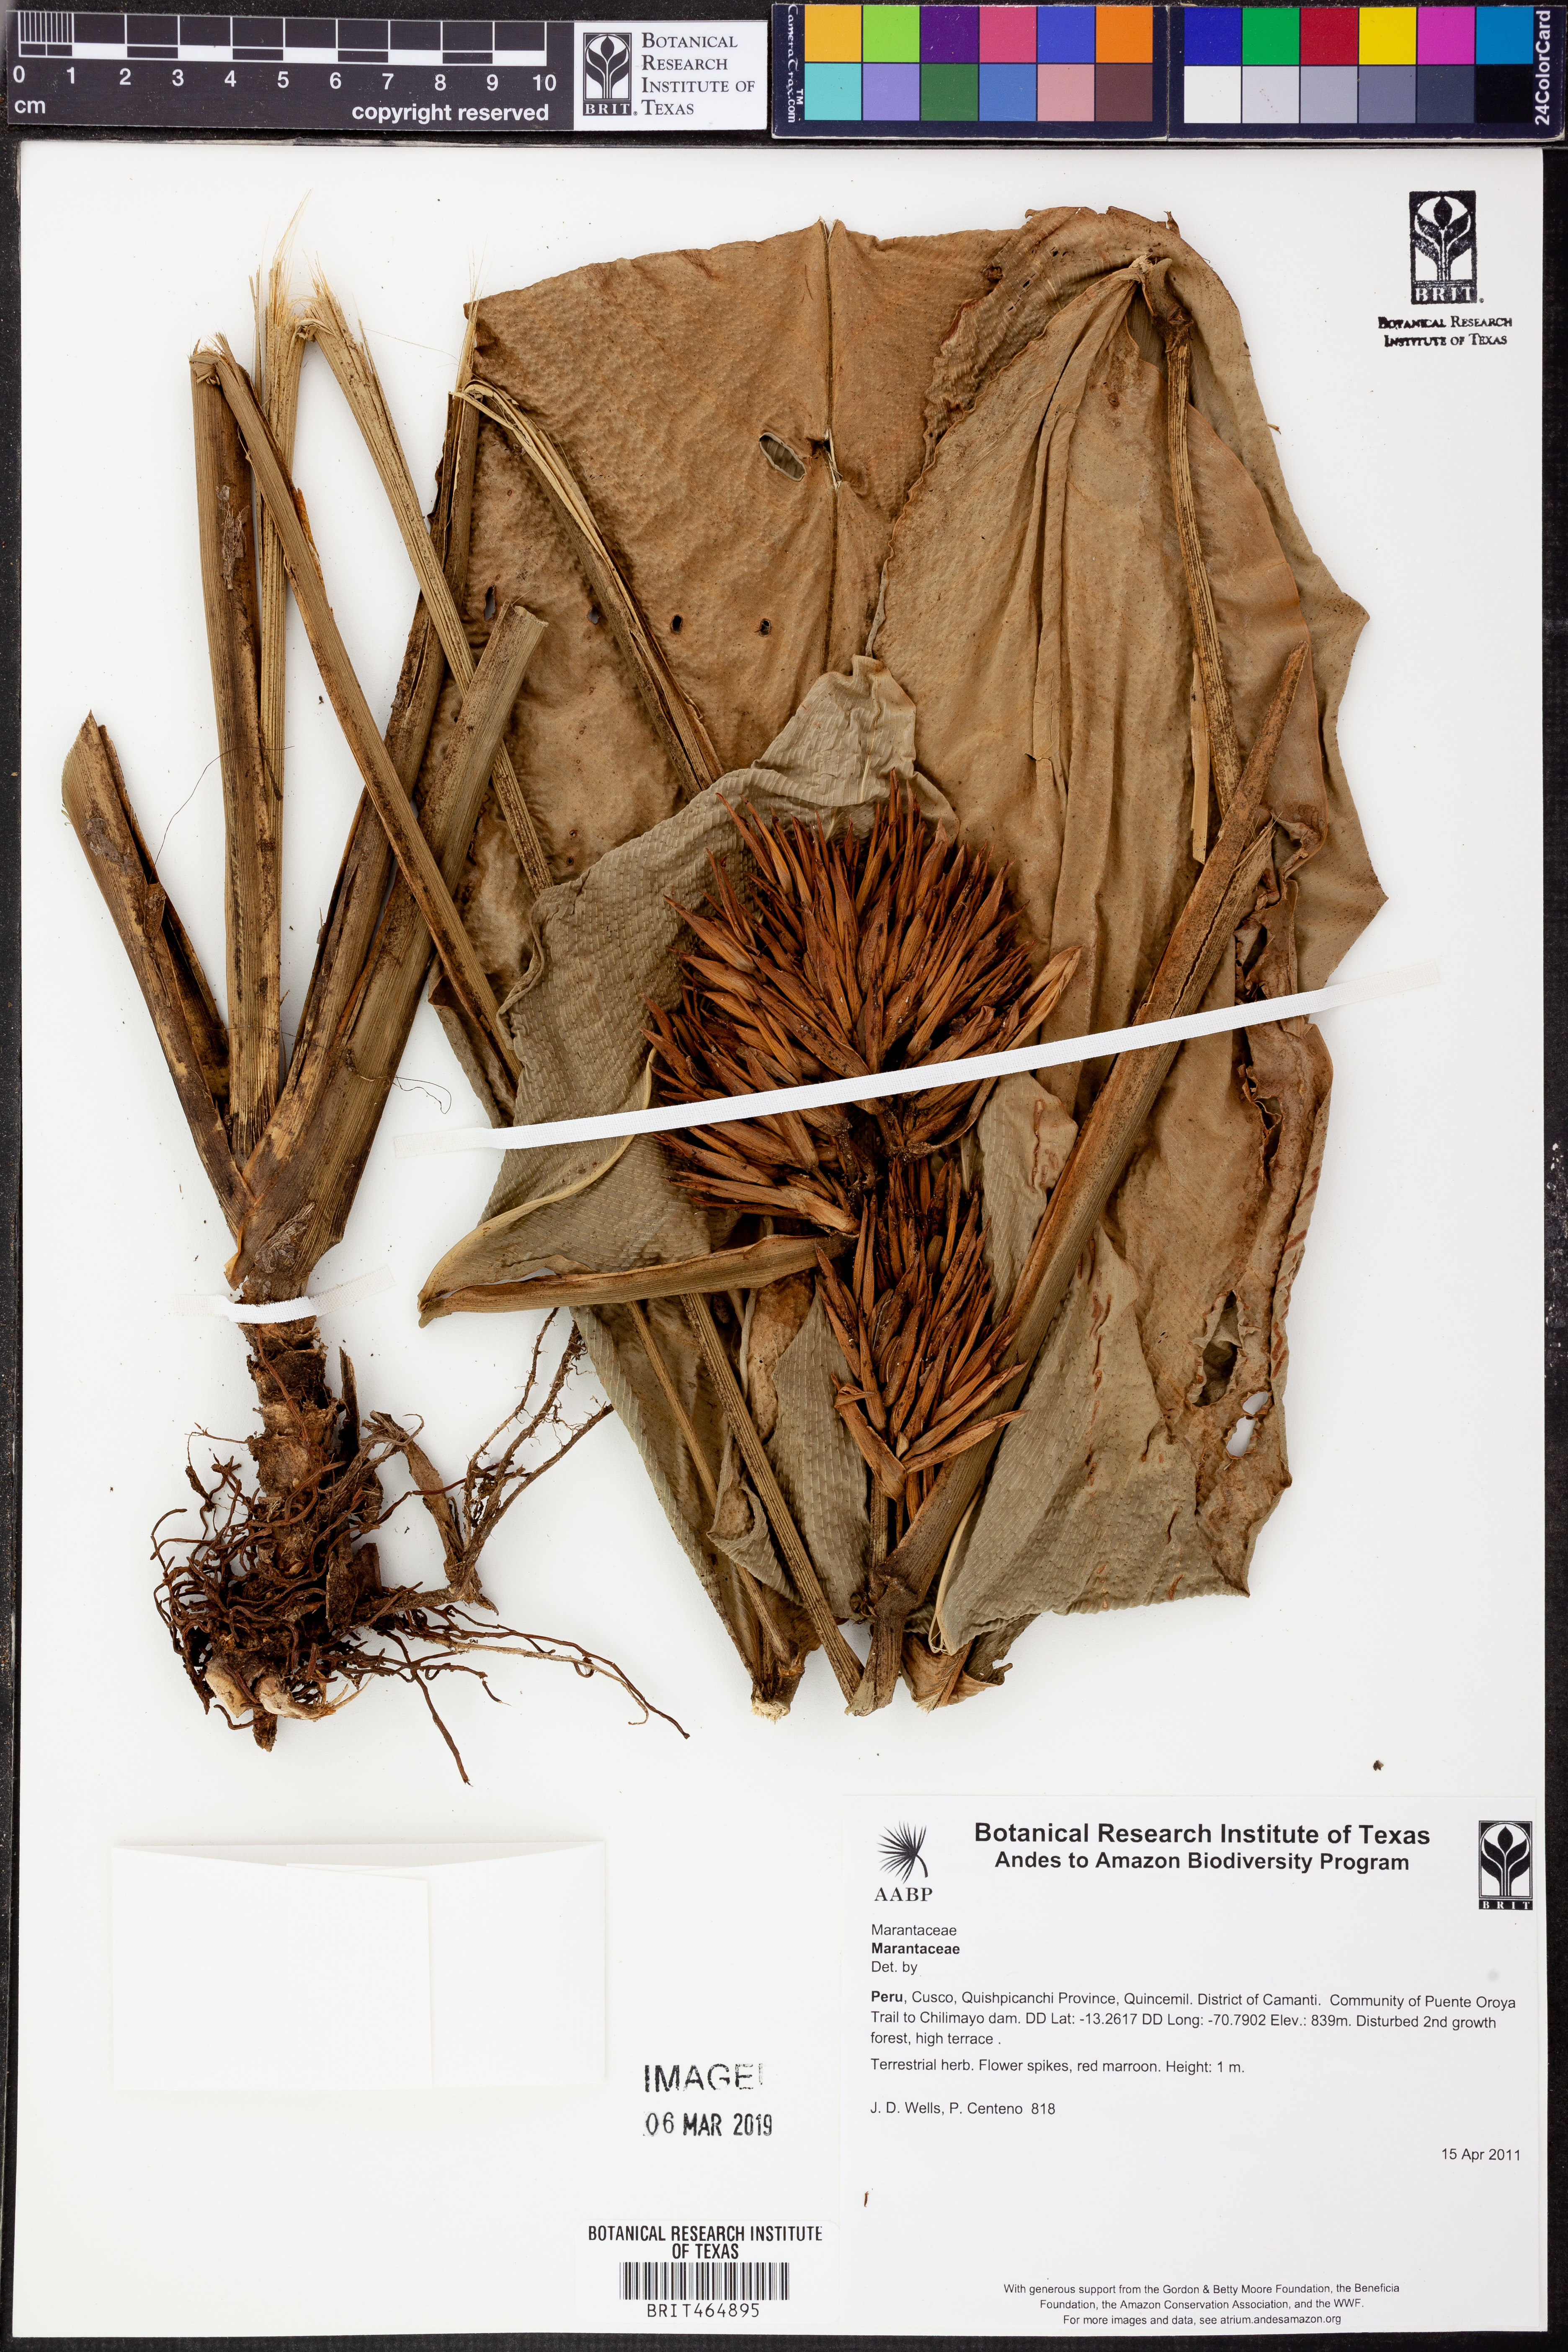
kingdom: Plantae
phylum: Tracheophyta
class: Liliopsida
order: Zingiberales
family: Marantaceae
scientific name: Marantaceae
